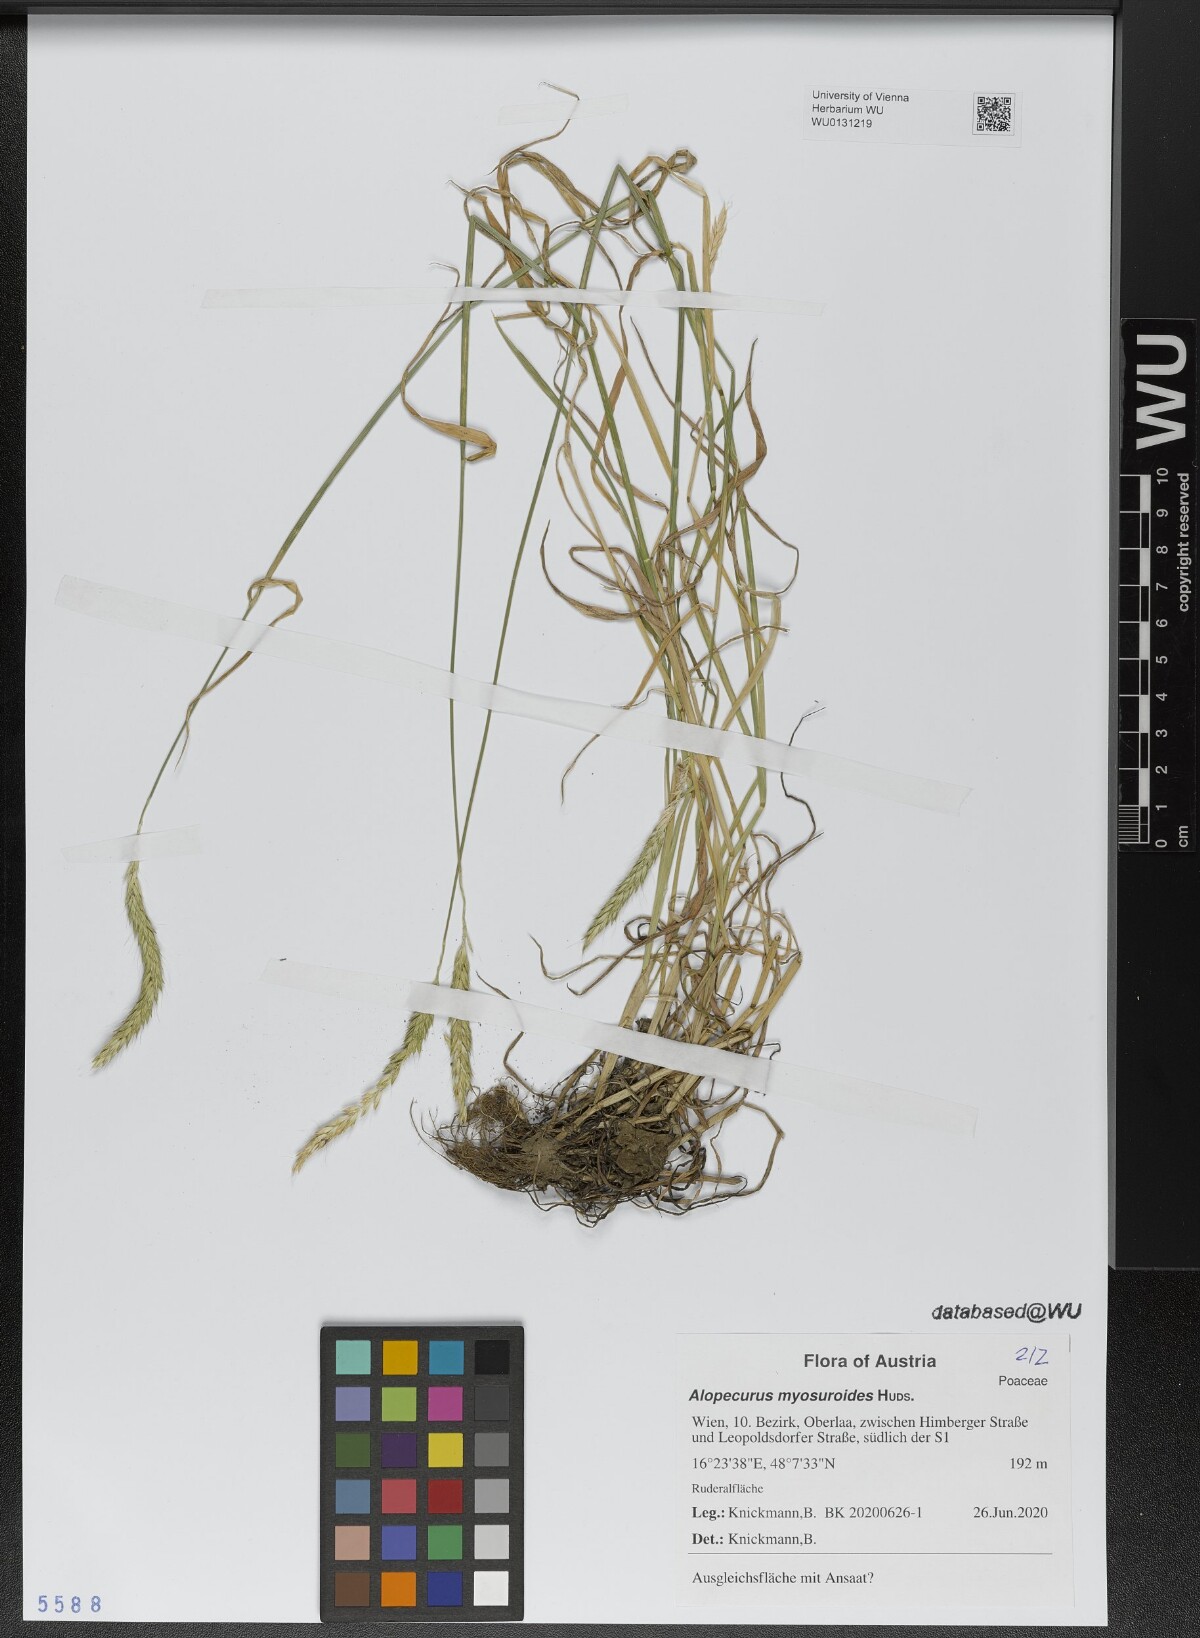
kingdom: Plantae
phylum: Tracheophyta
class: Liliopsida
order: Poales
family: Poaceae
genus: Alopecurus
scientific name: Alopecurus myosuroides
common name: Black-grass
